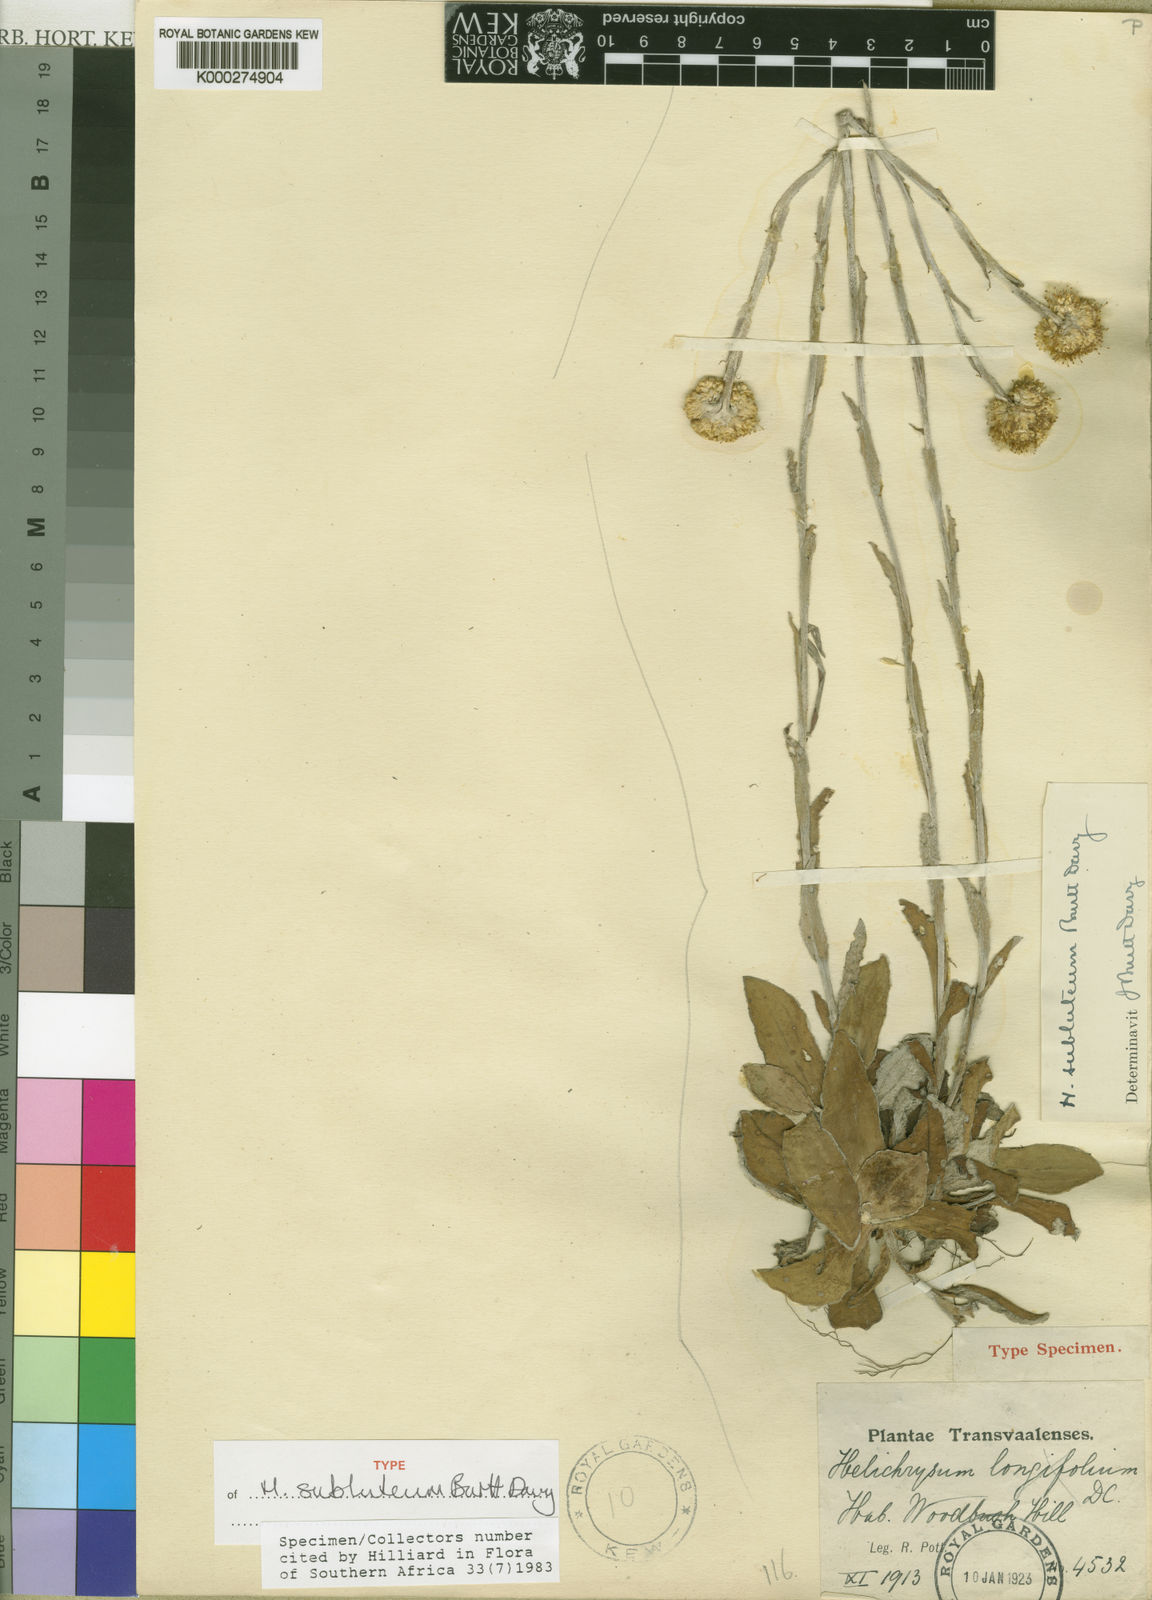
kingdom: Plantae
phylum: Tracheophyta
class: Magnoliopsida
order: Asterales
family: Asteraceae
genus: Helichrysum
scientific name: Helichrysum subluteum
